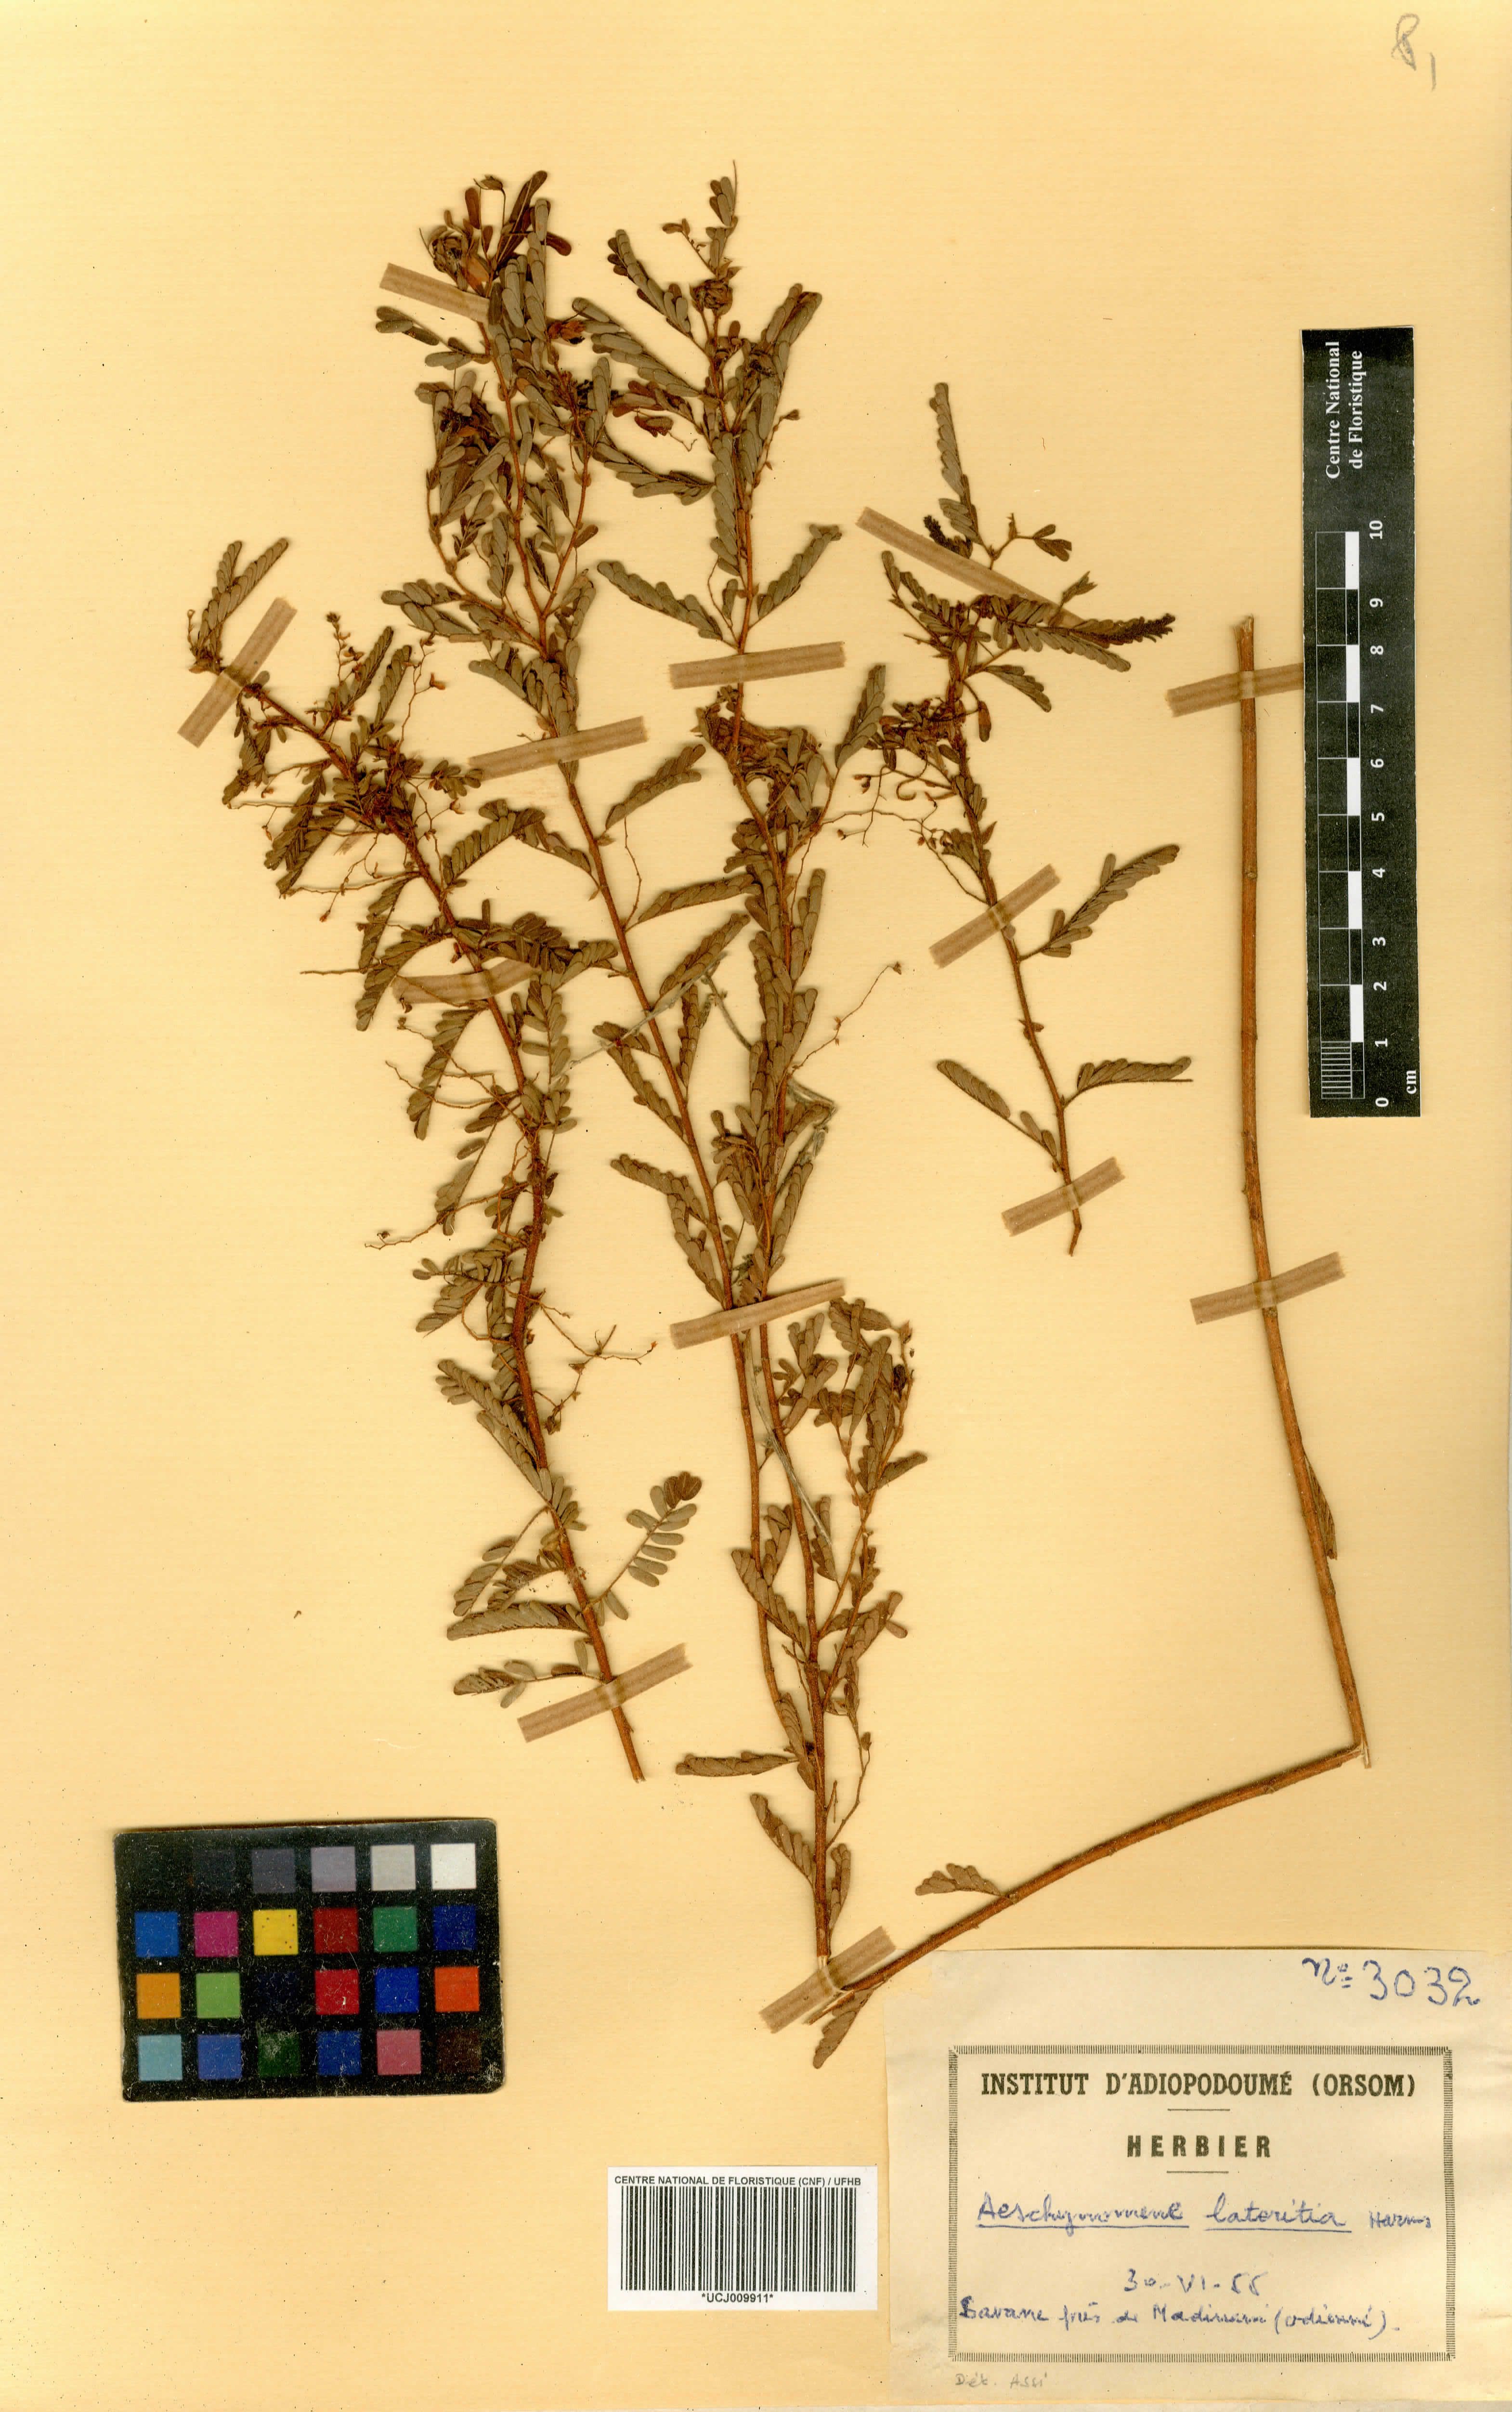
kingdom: Plantae
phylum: Tracheophyta
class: Magnoliopsida
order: Fabales
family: Fabaceae
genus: Aeschynomene
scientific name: Aeschynomene lateritia
